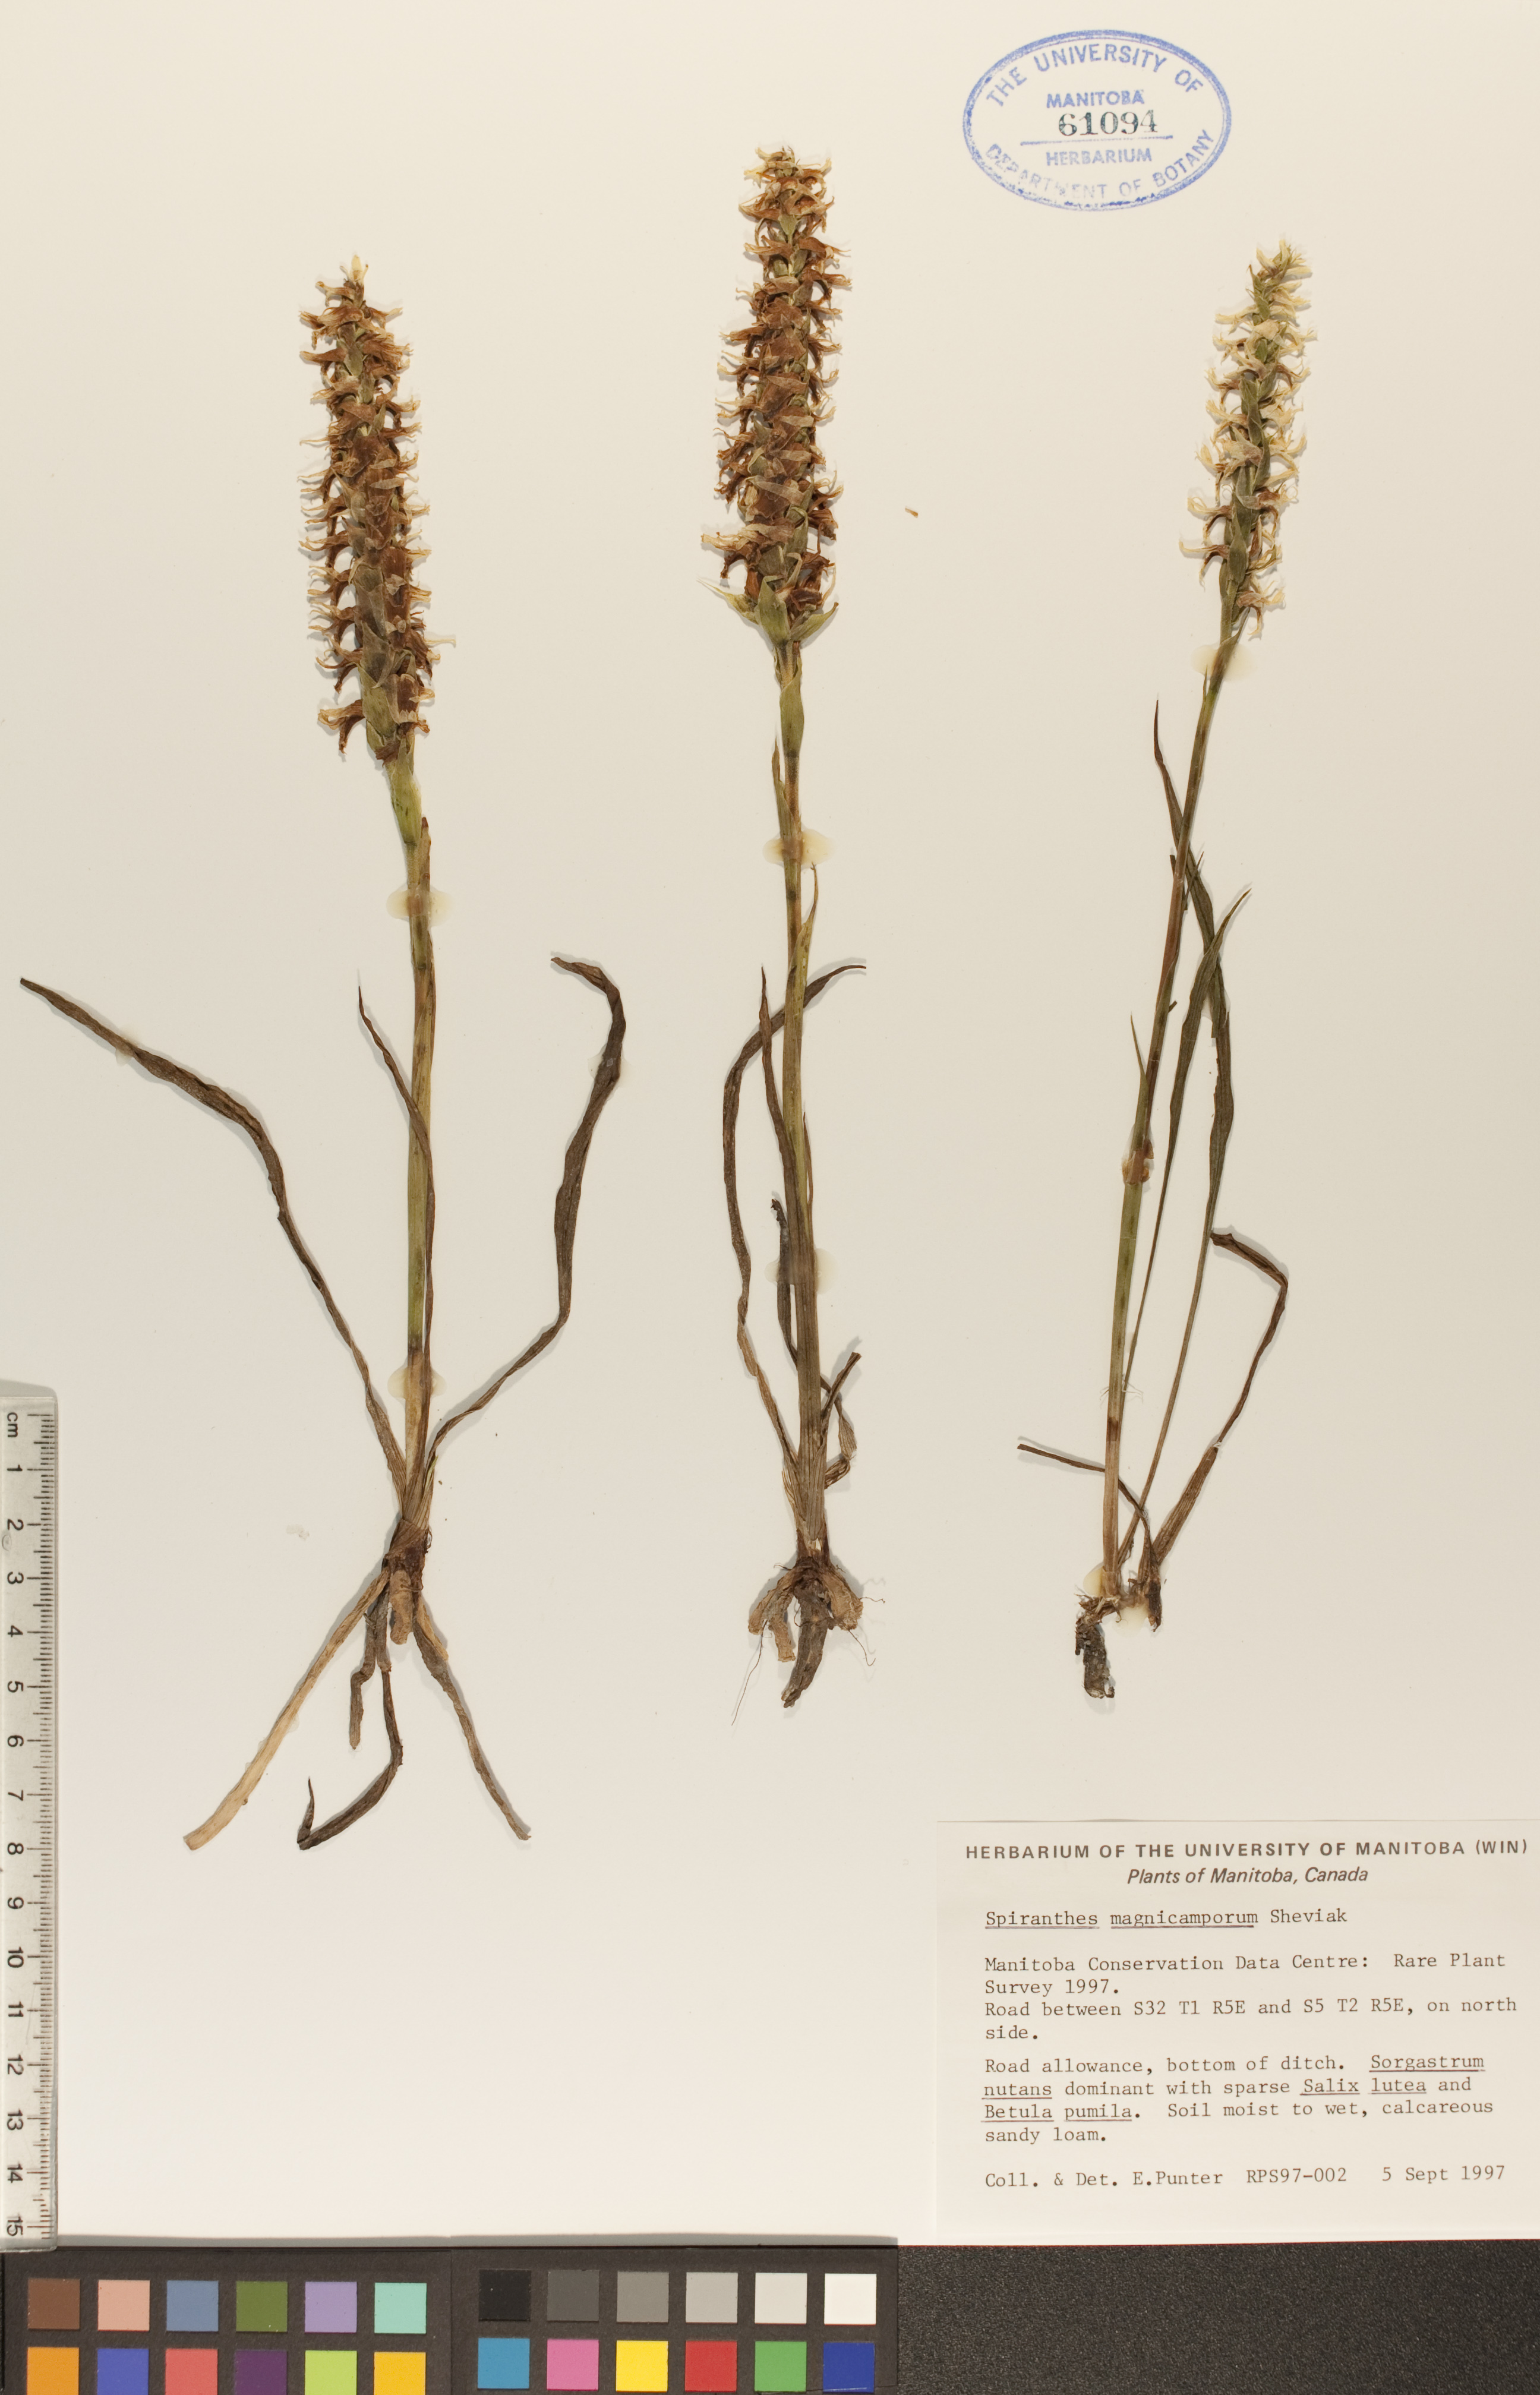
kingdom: Plantae
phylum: Tracheophyta
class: Liliopsida
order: Asparagales
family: Orchidaceae
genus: Spiranthes
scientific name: Spiranthes magnicamporum
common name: Great plains ladies'-tresses
